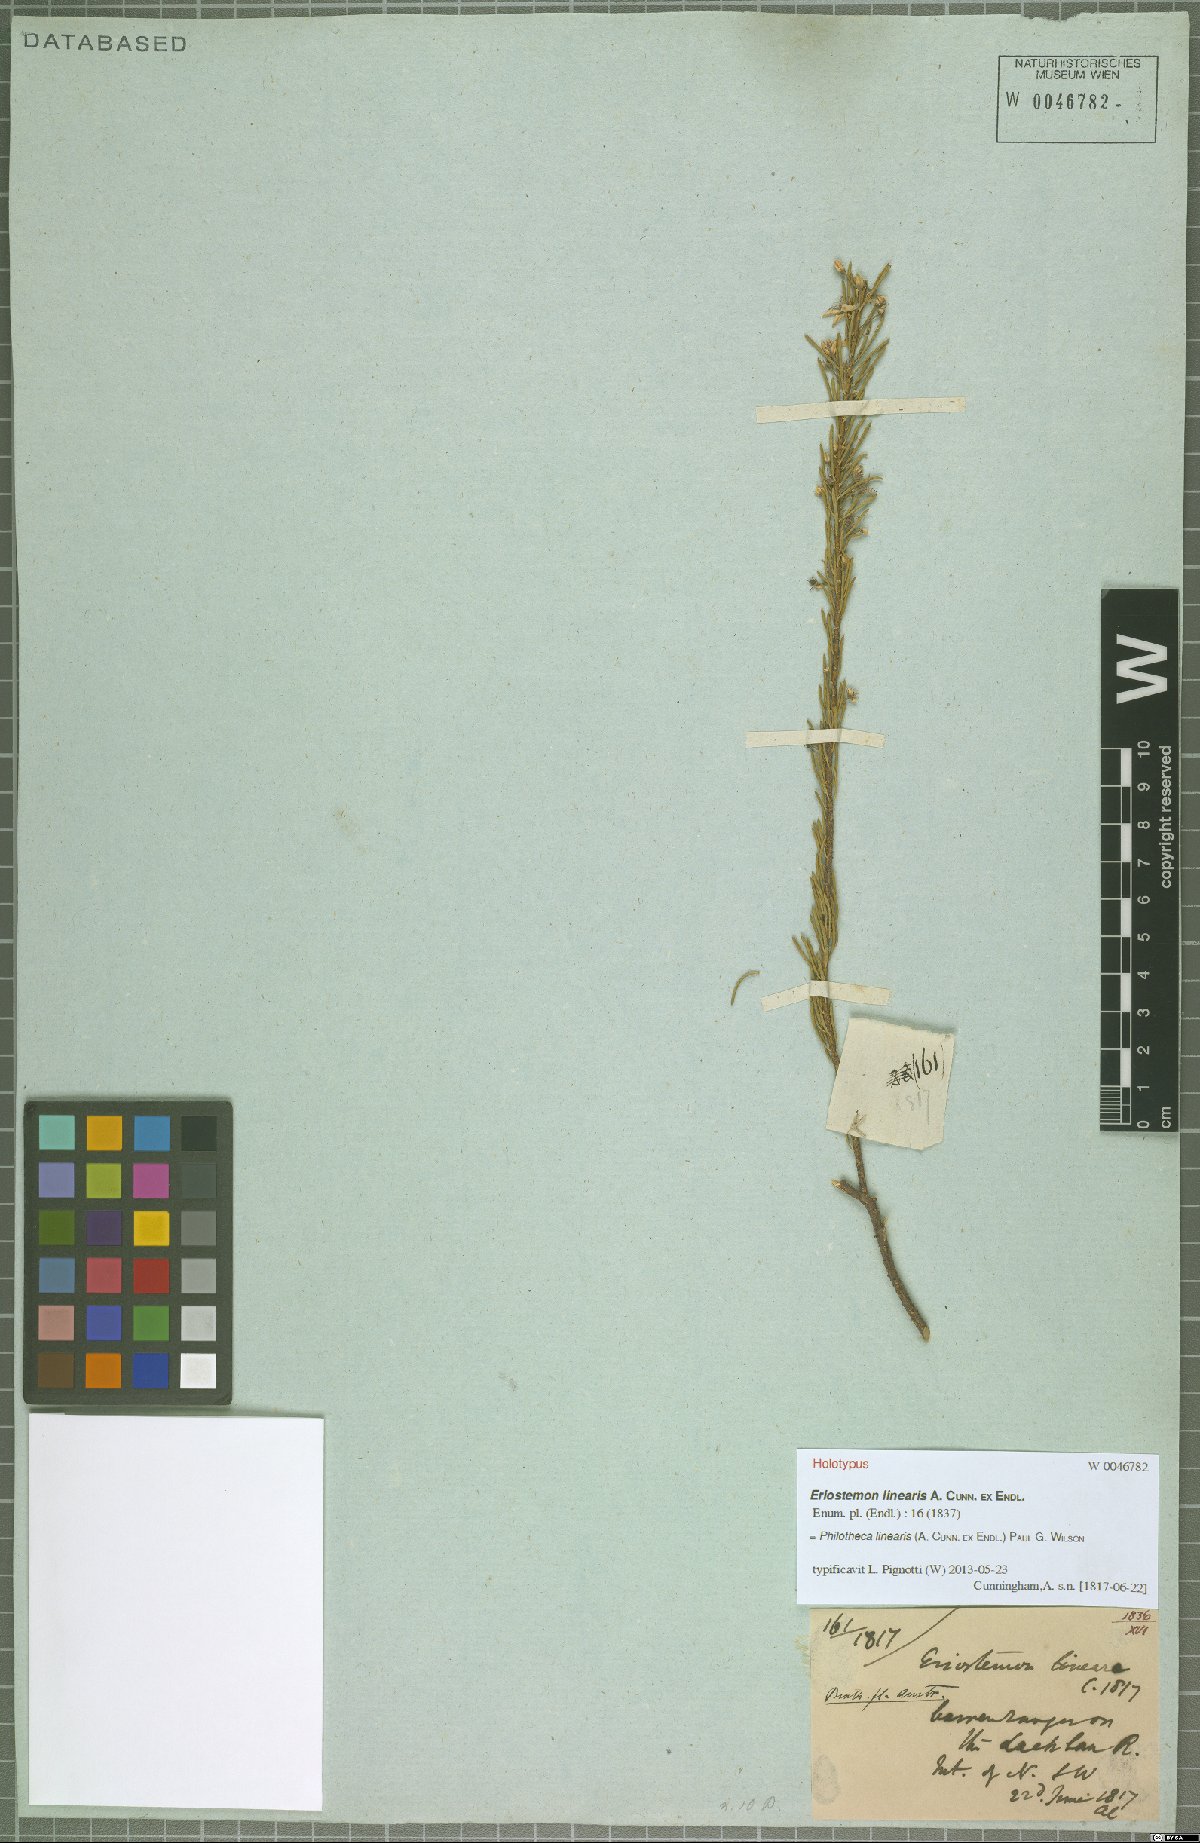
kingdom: Plantae
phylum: Tracheophyta
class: Magnoliopsida
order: Sapindales
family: Rutaceae
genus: Philotheca
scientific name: Philotheca linearis
